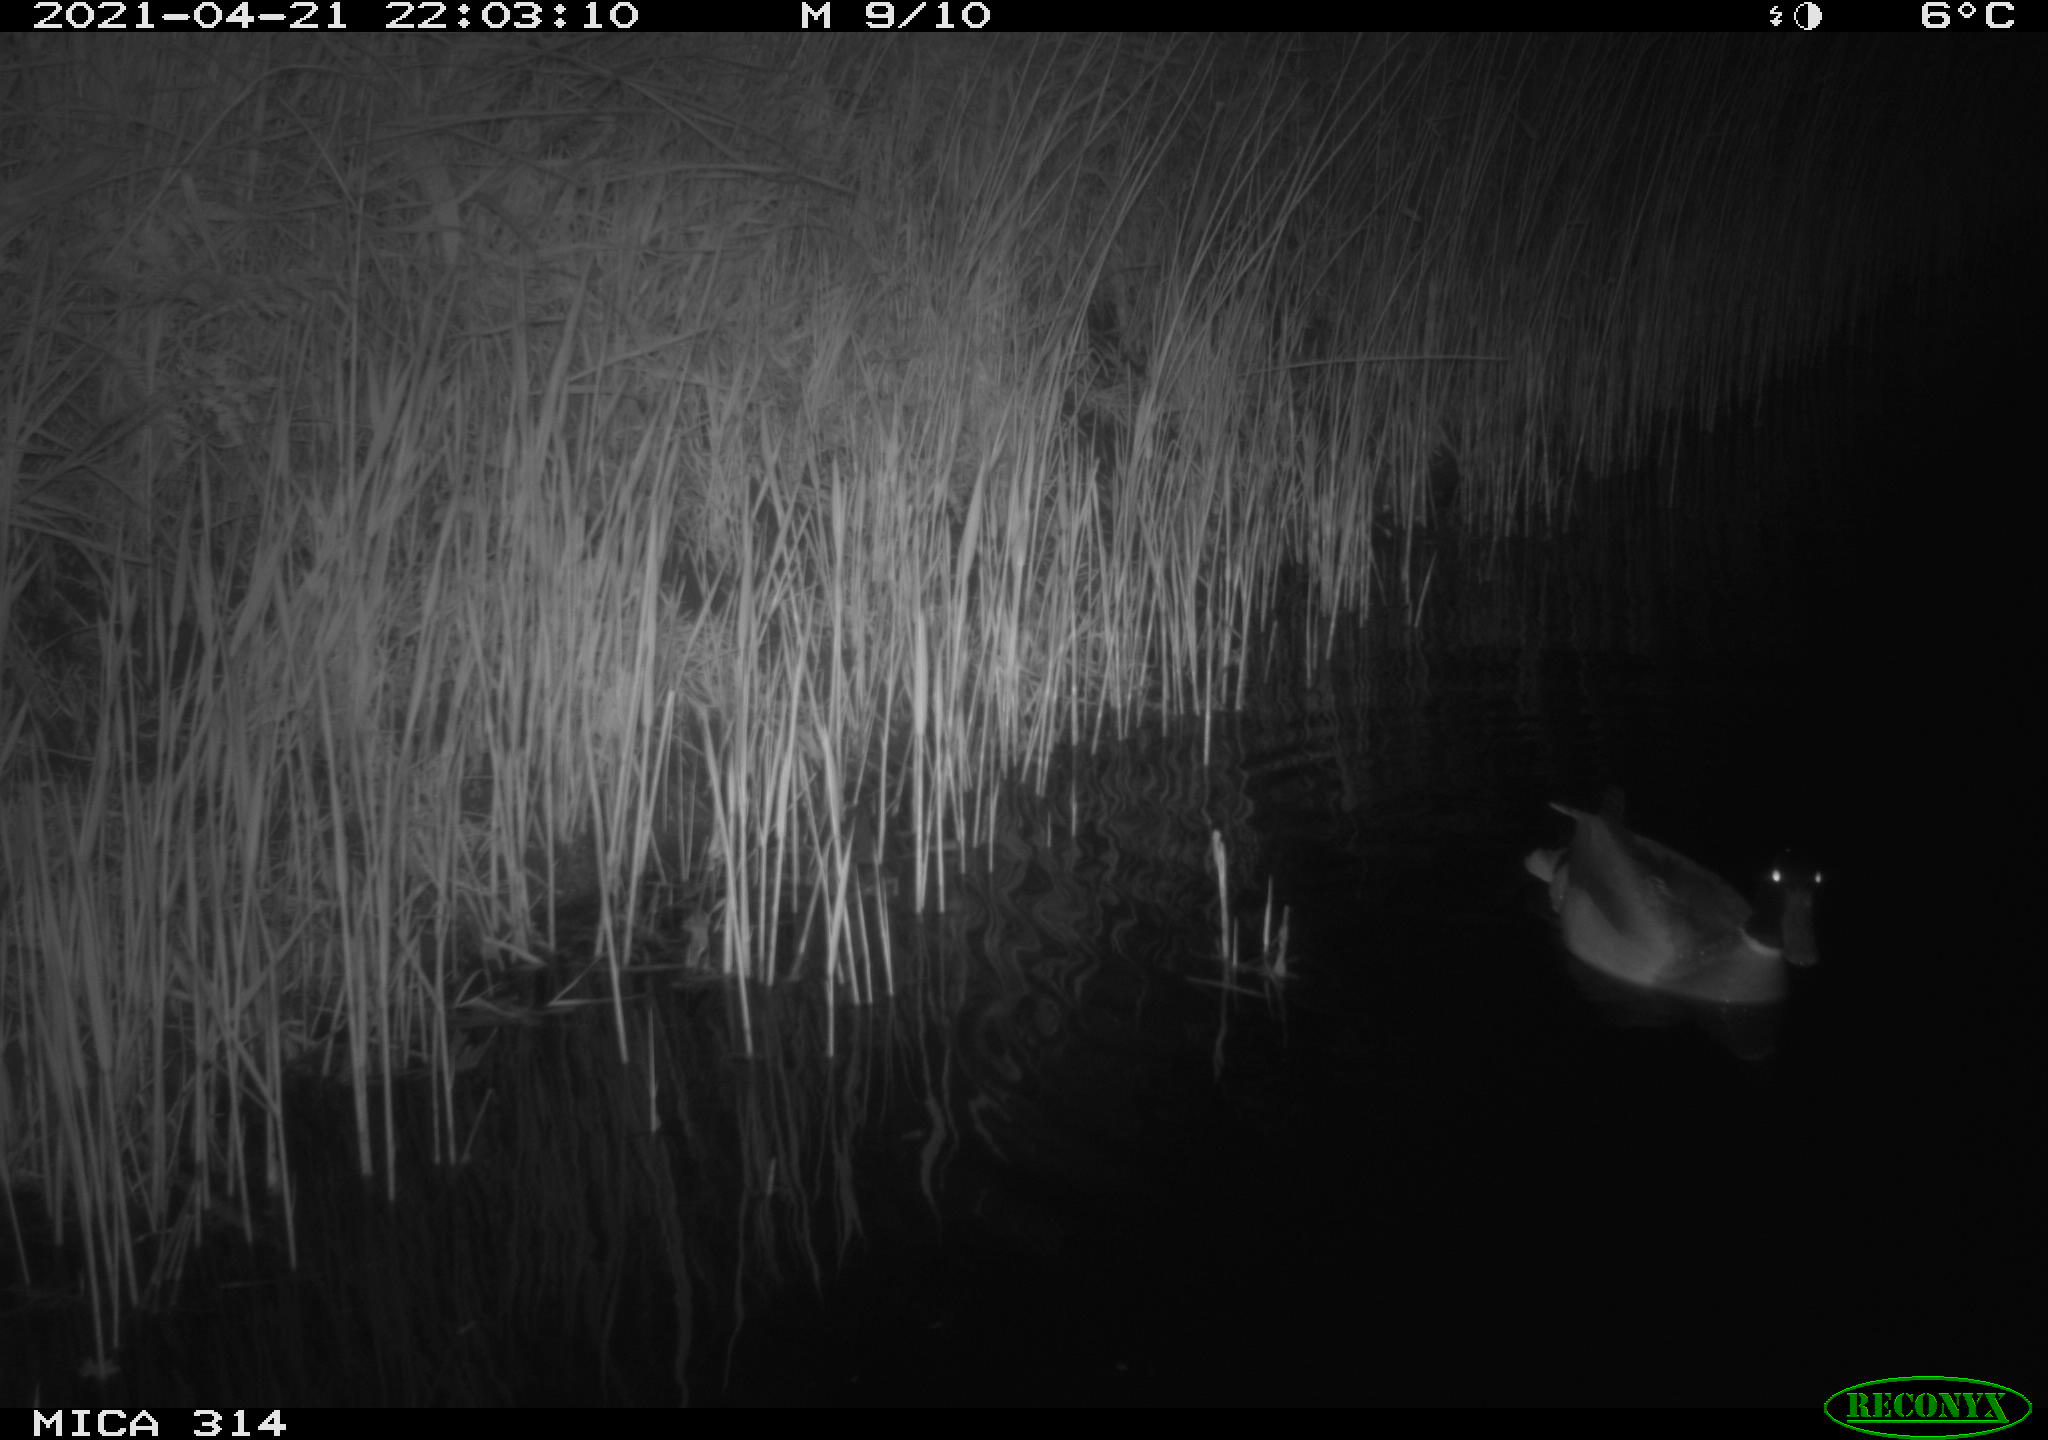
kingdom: Animalia
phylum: Chordata
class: Aves
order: Anseriformes
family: Anatidae
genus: Anas
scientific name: Anas platyrhynchos
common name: Mallard
